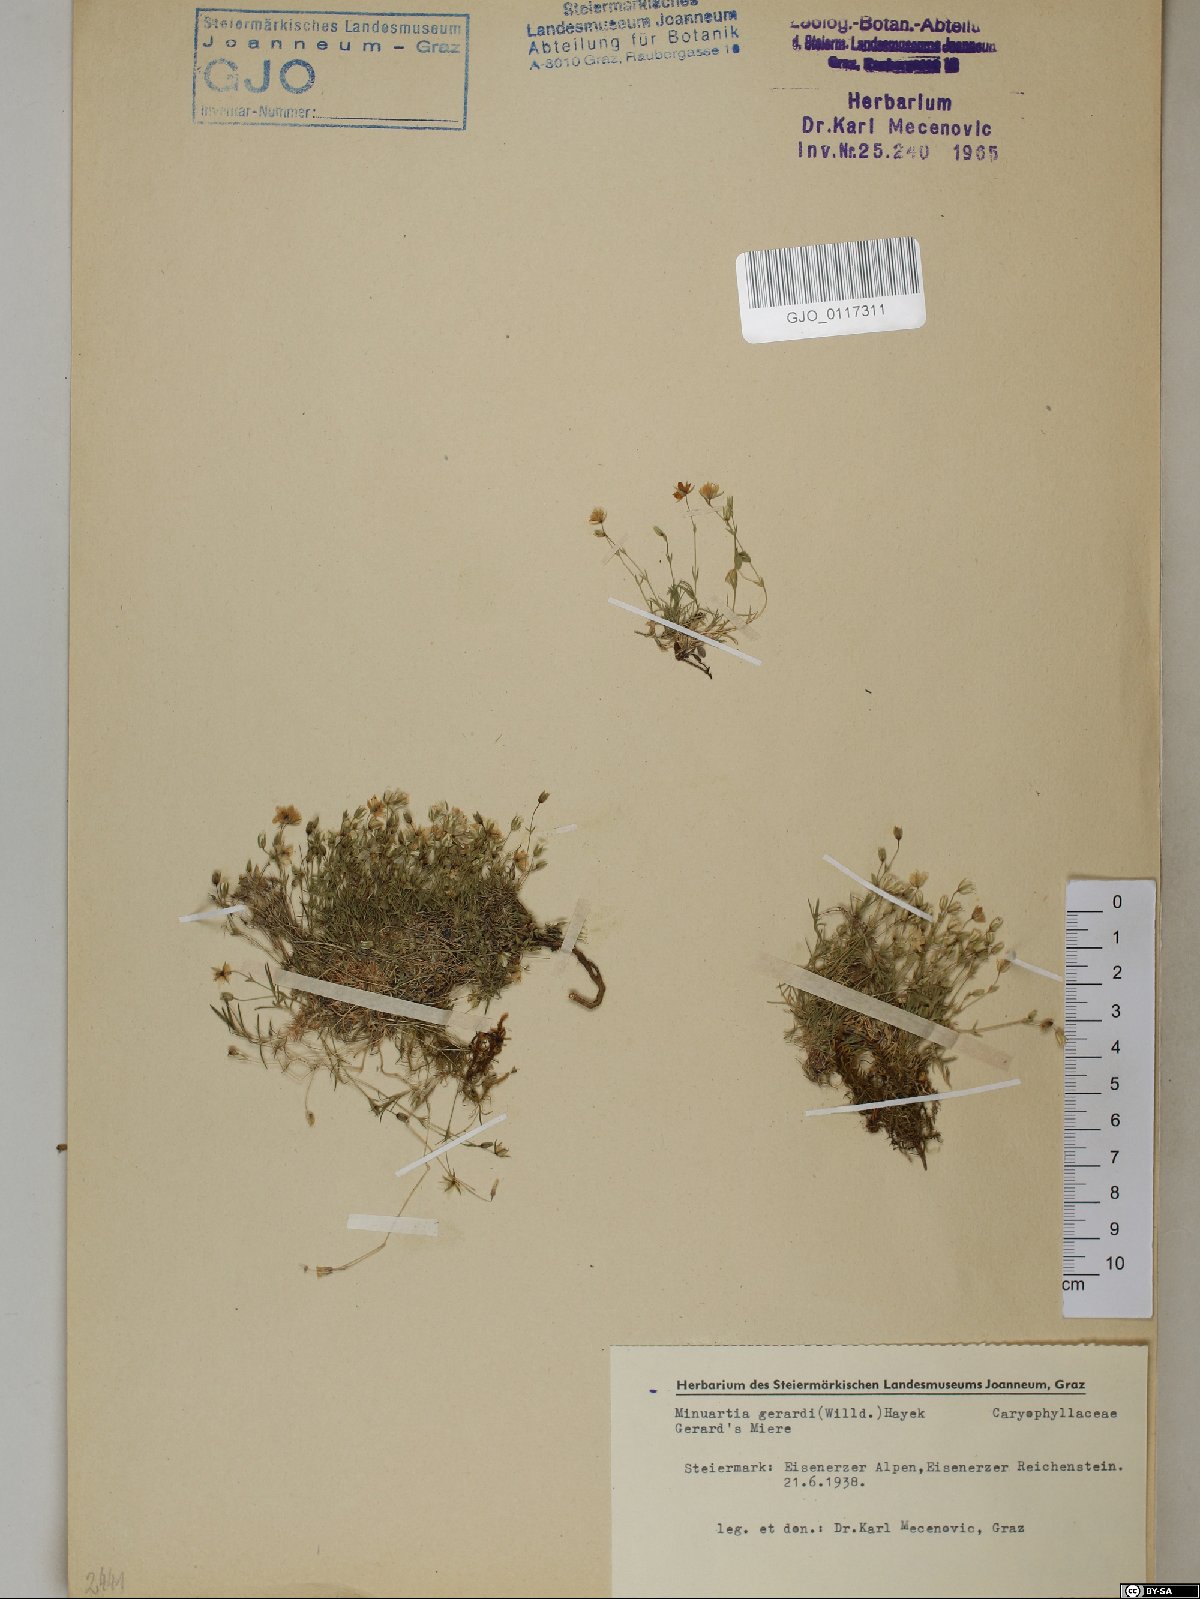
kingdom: Plantae
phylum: Tracheophyta
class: Magnoliopsida
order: Caryophyllales
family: Caryophyllaceae
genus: Sabulina
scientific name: Sabulina verna
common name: Spring sandwort
